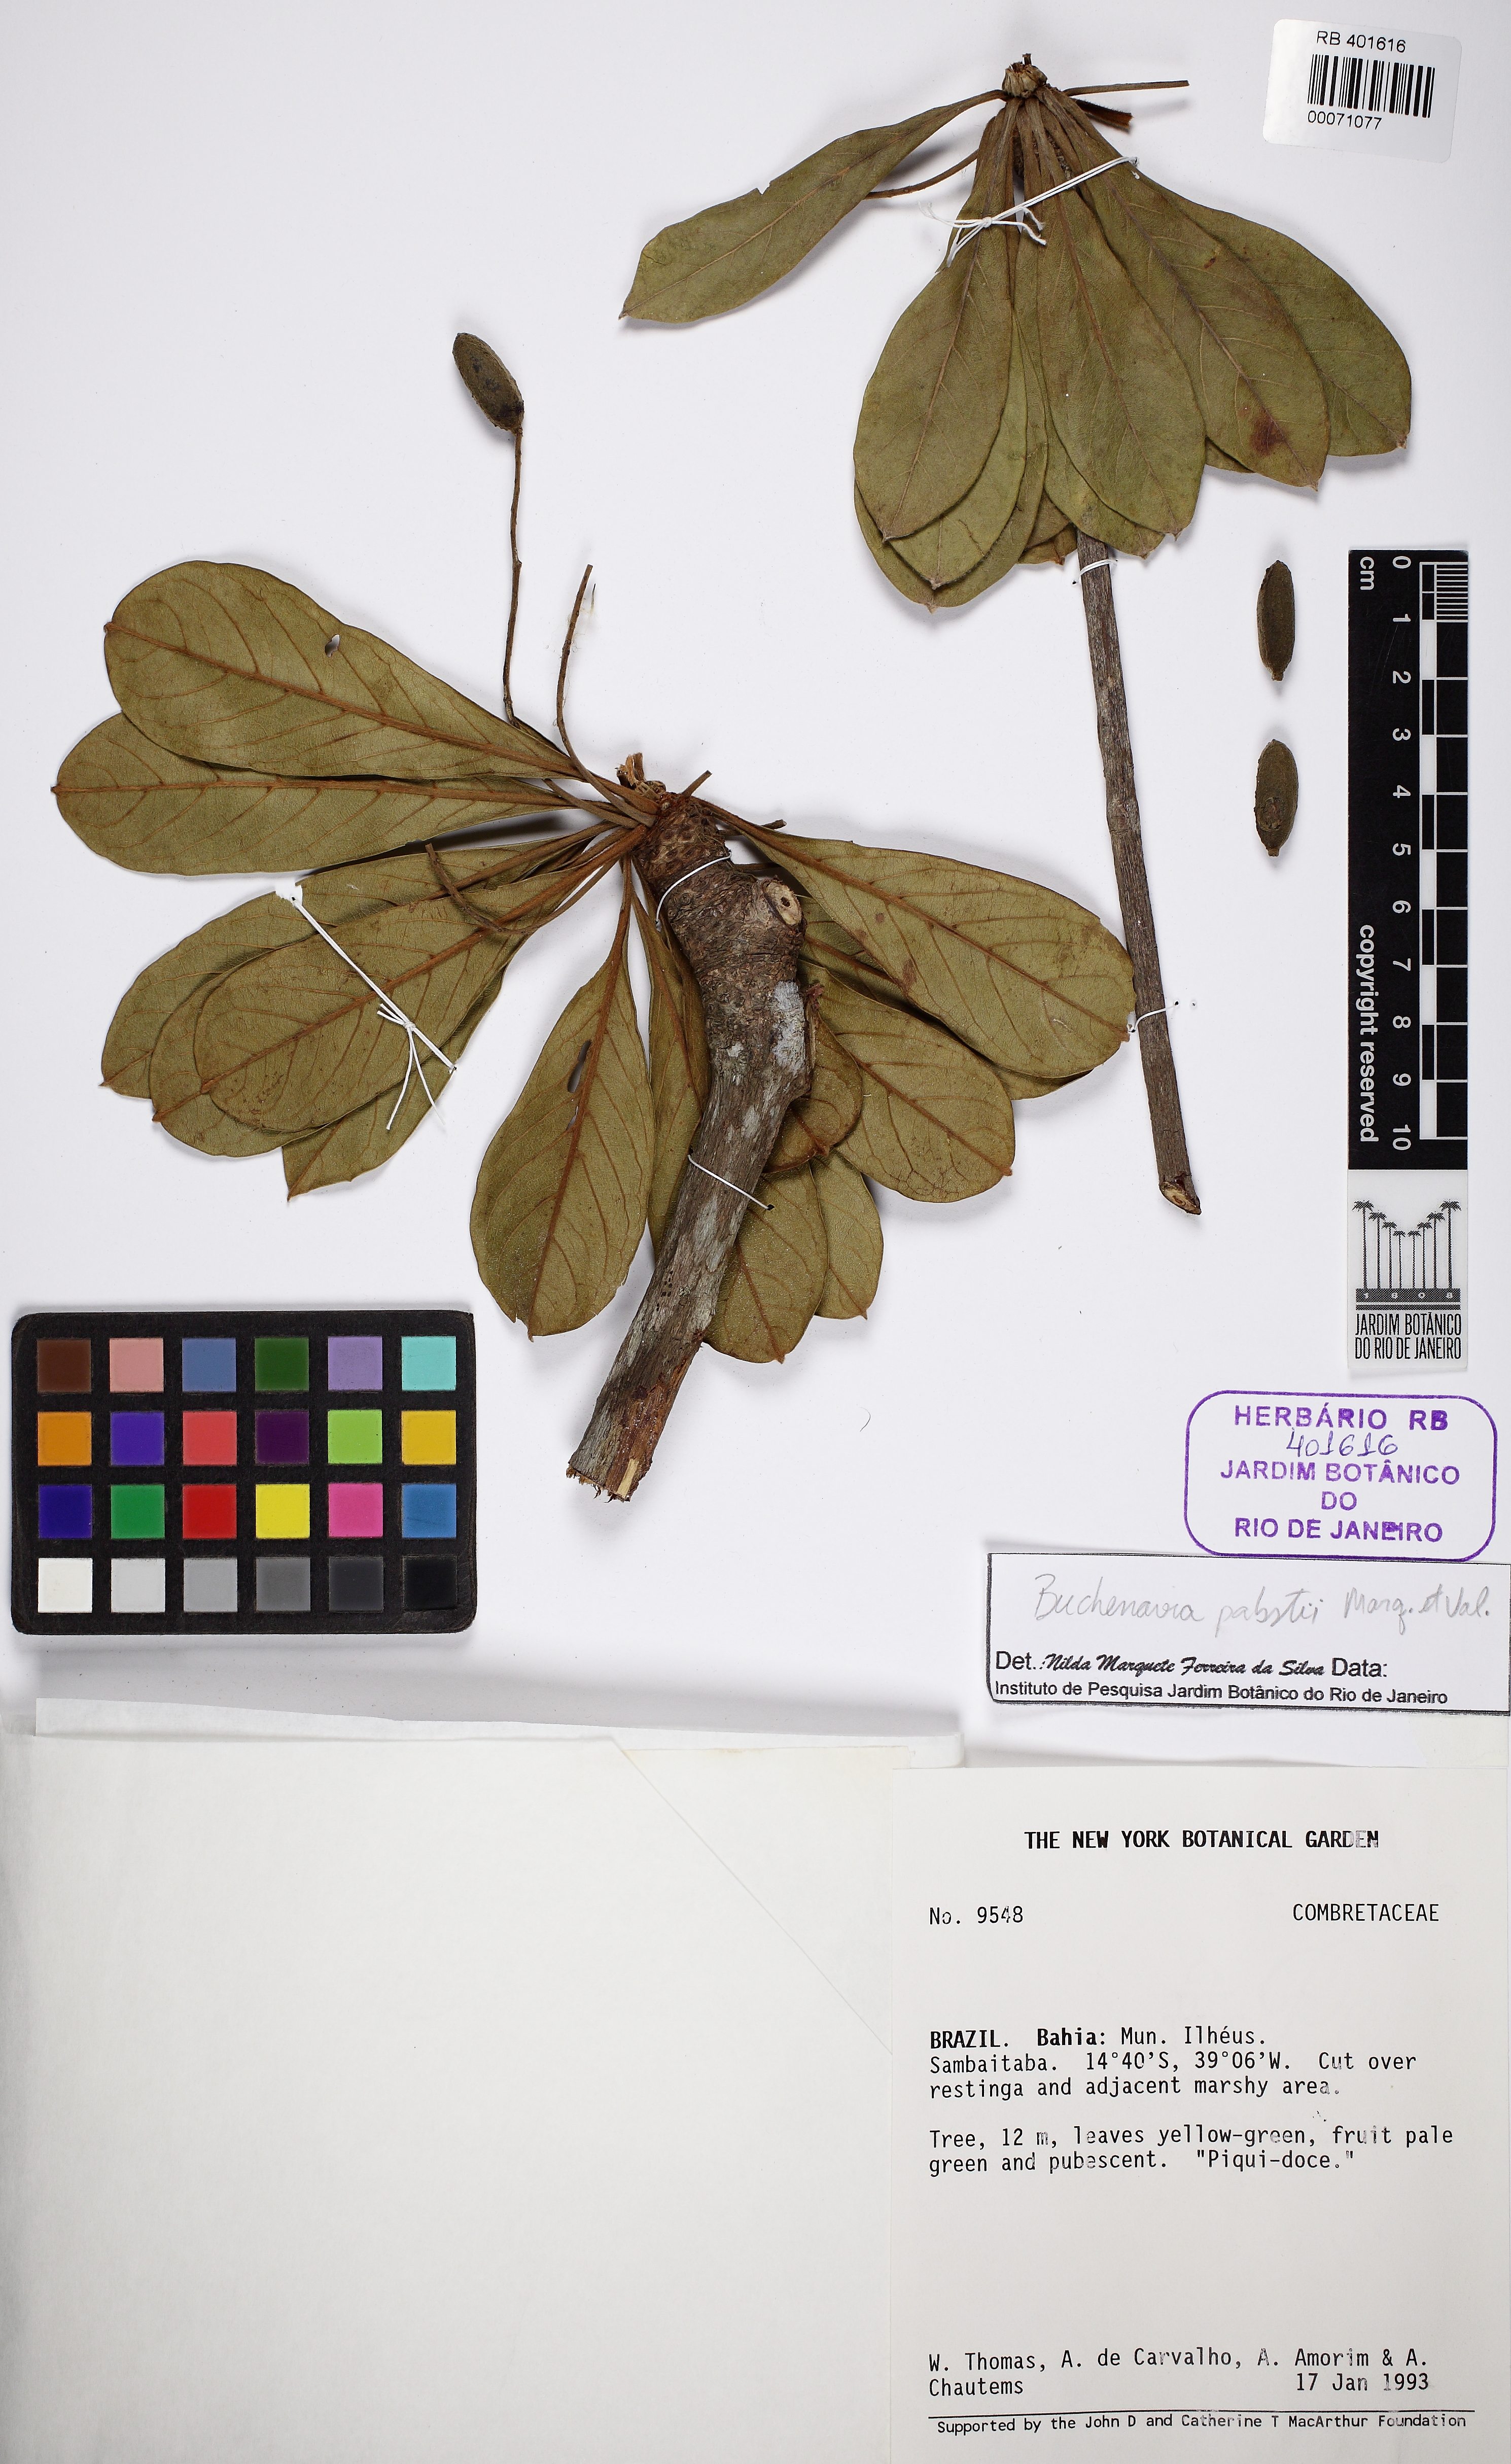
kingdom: Plantae
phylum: Tracheophyta
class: Magnoliopsida
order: Myrtales
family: Combretaceae
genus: Terminalia
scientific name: Terminalia pabstii
